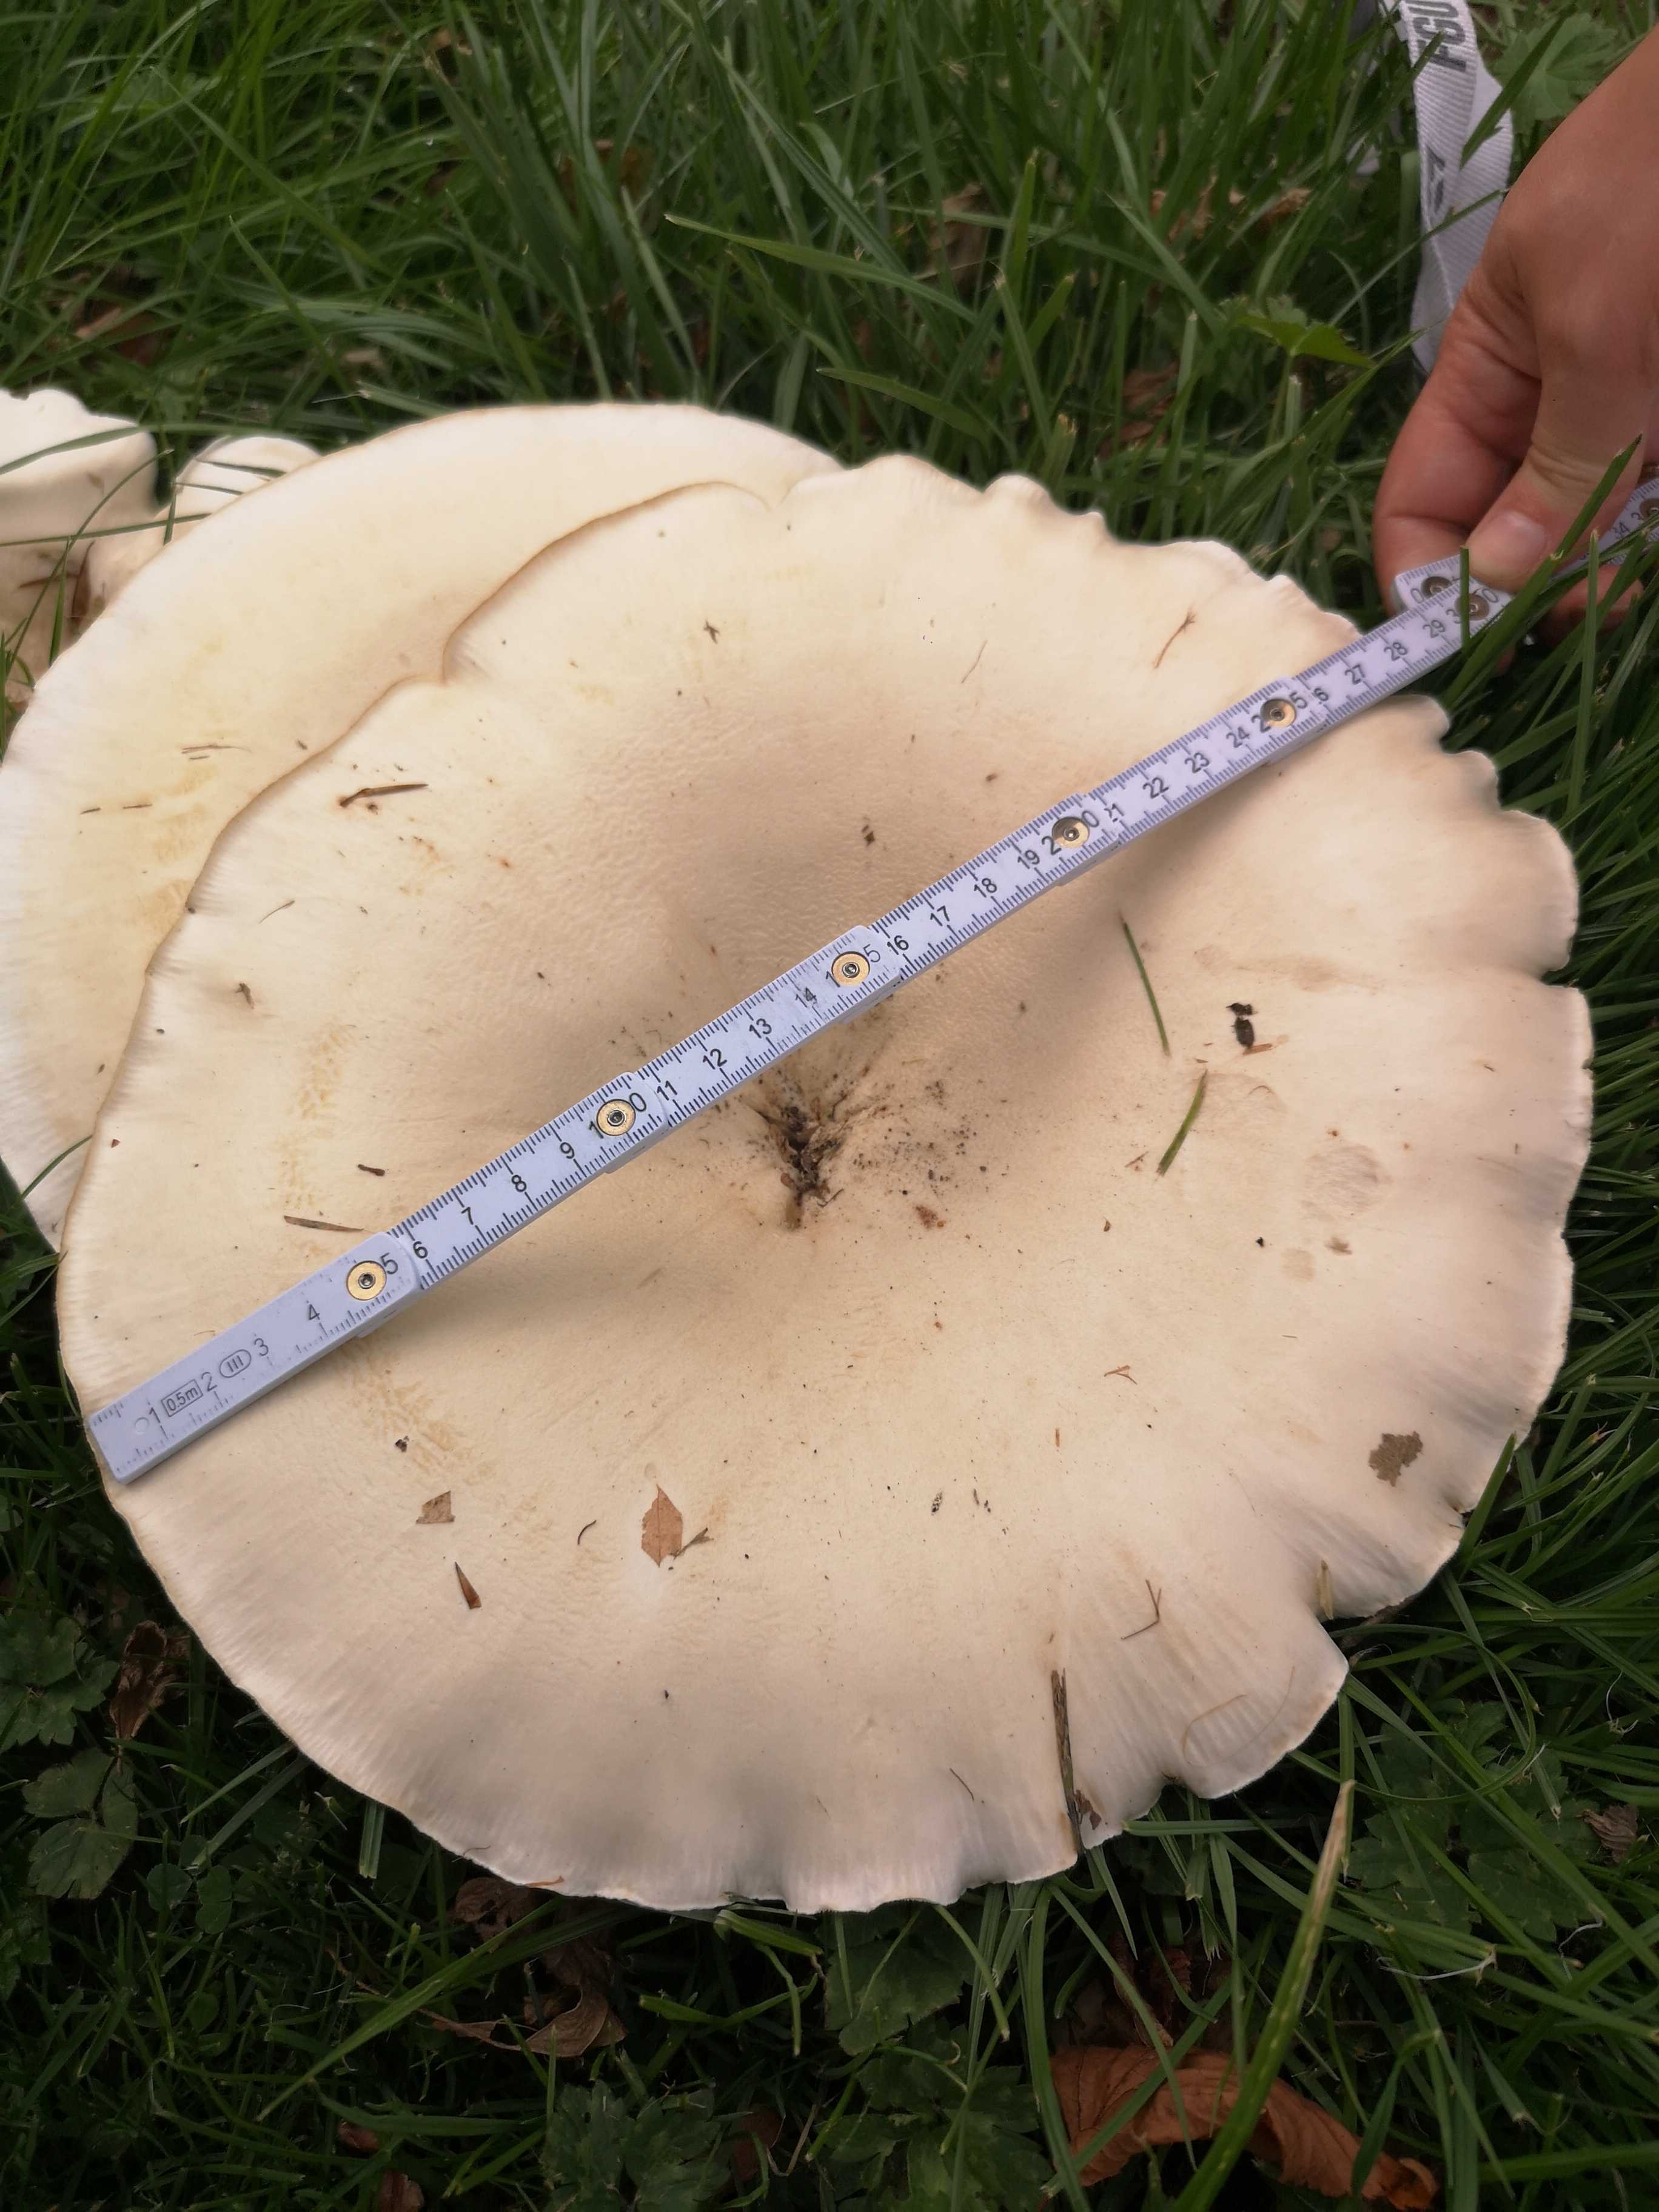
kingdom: Fungi
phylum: Basidiomycota
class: Agaricomycetes
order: Agaricales
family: Tricholomataceae
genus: Aspropaxillus
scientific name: Aspropaxillus giganteus
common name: kæmpe-tragtridderhat
